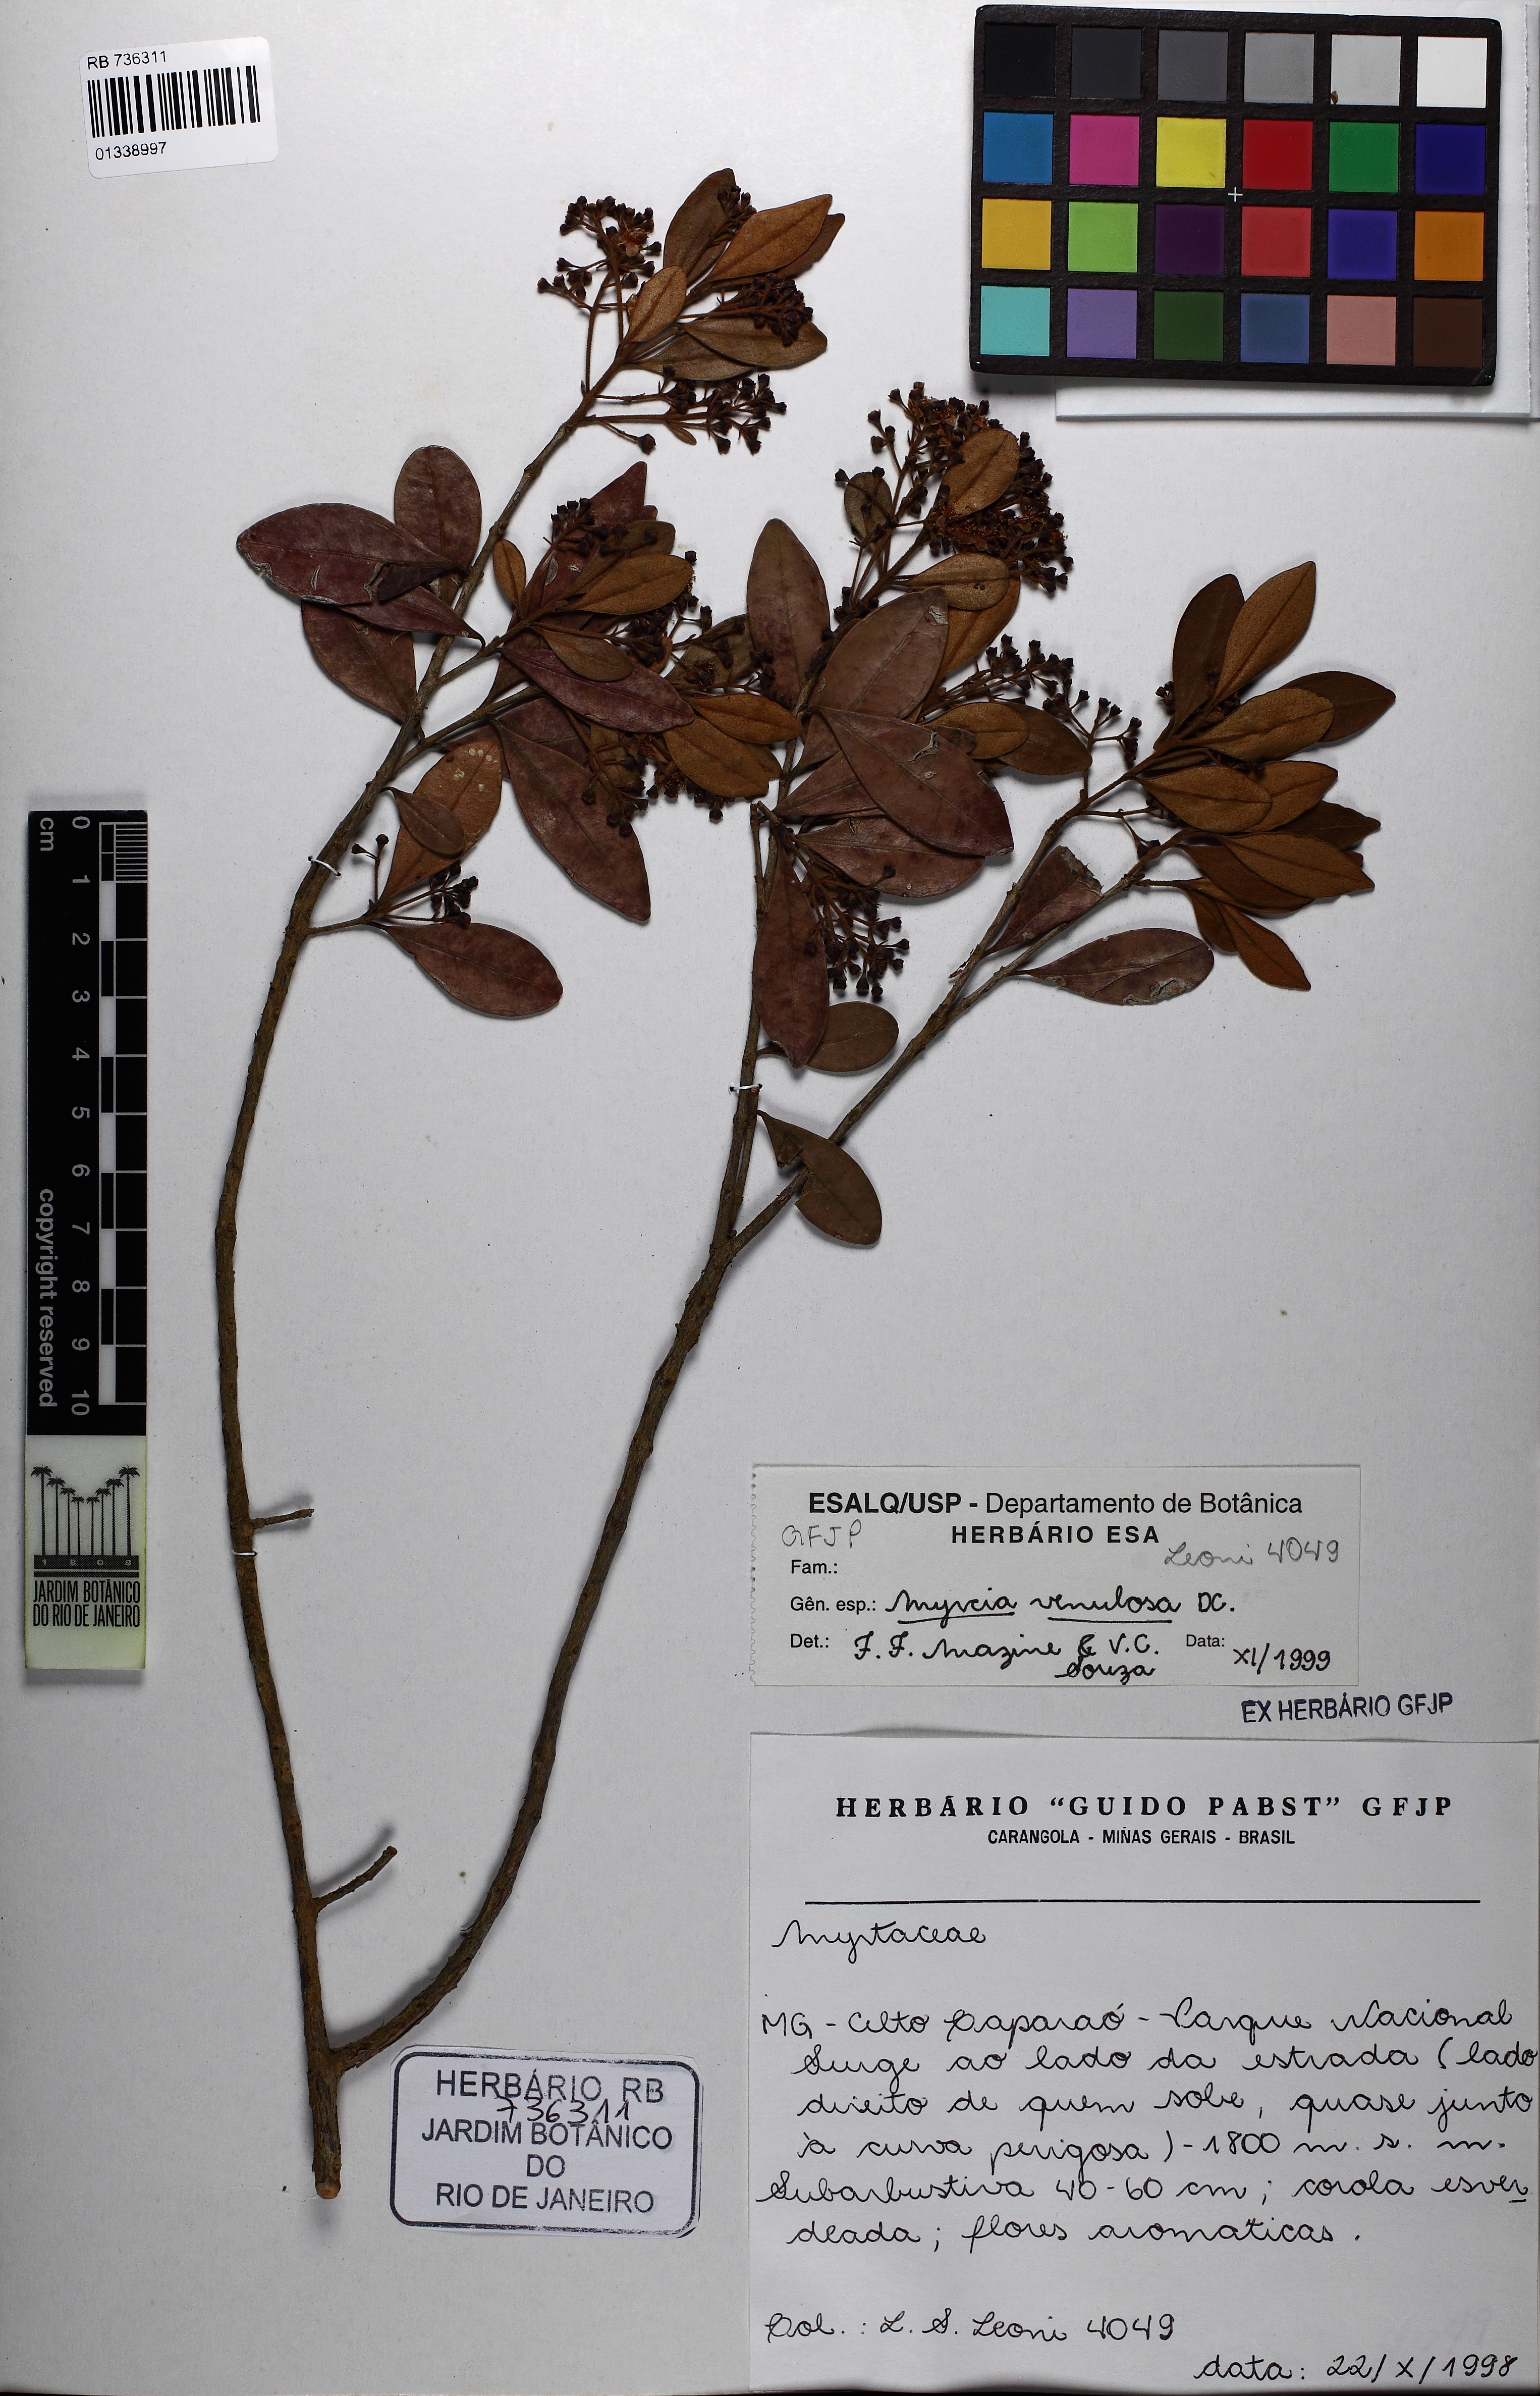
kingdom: Plantae
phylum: Tracheophyta
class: Magnoliopsida
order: Myrtales
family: Myrtaceae
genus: Myrcia
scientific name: Myrcia subalpestris
